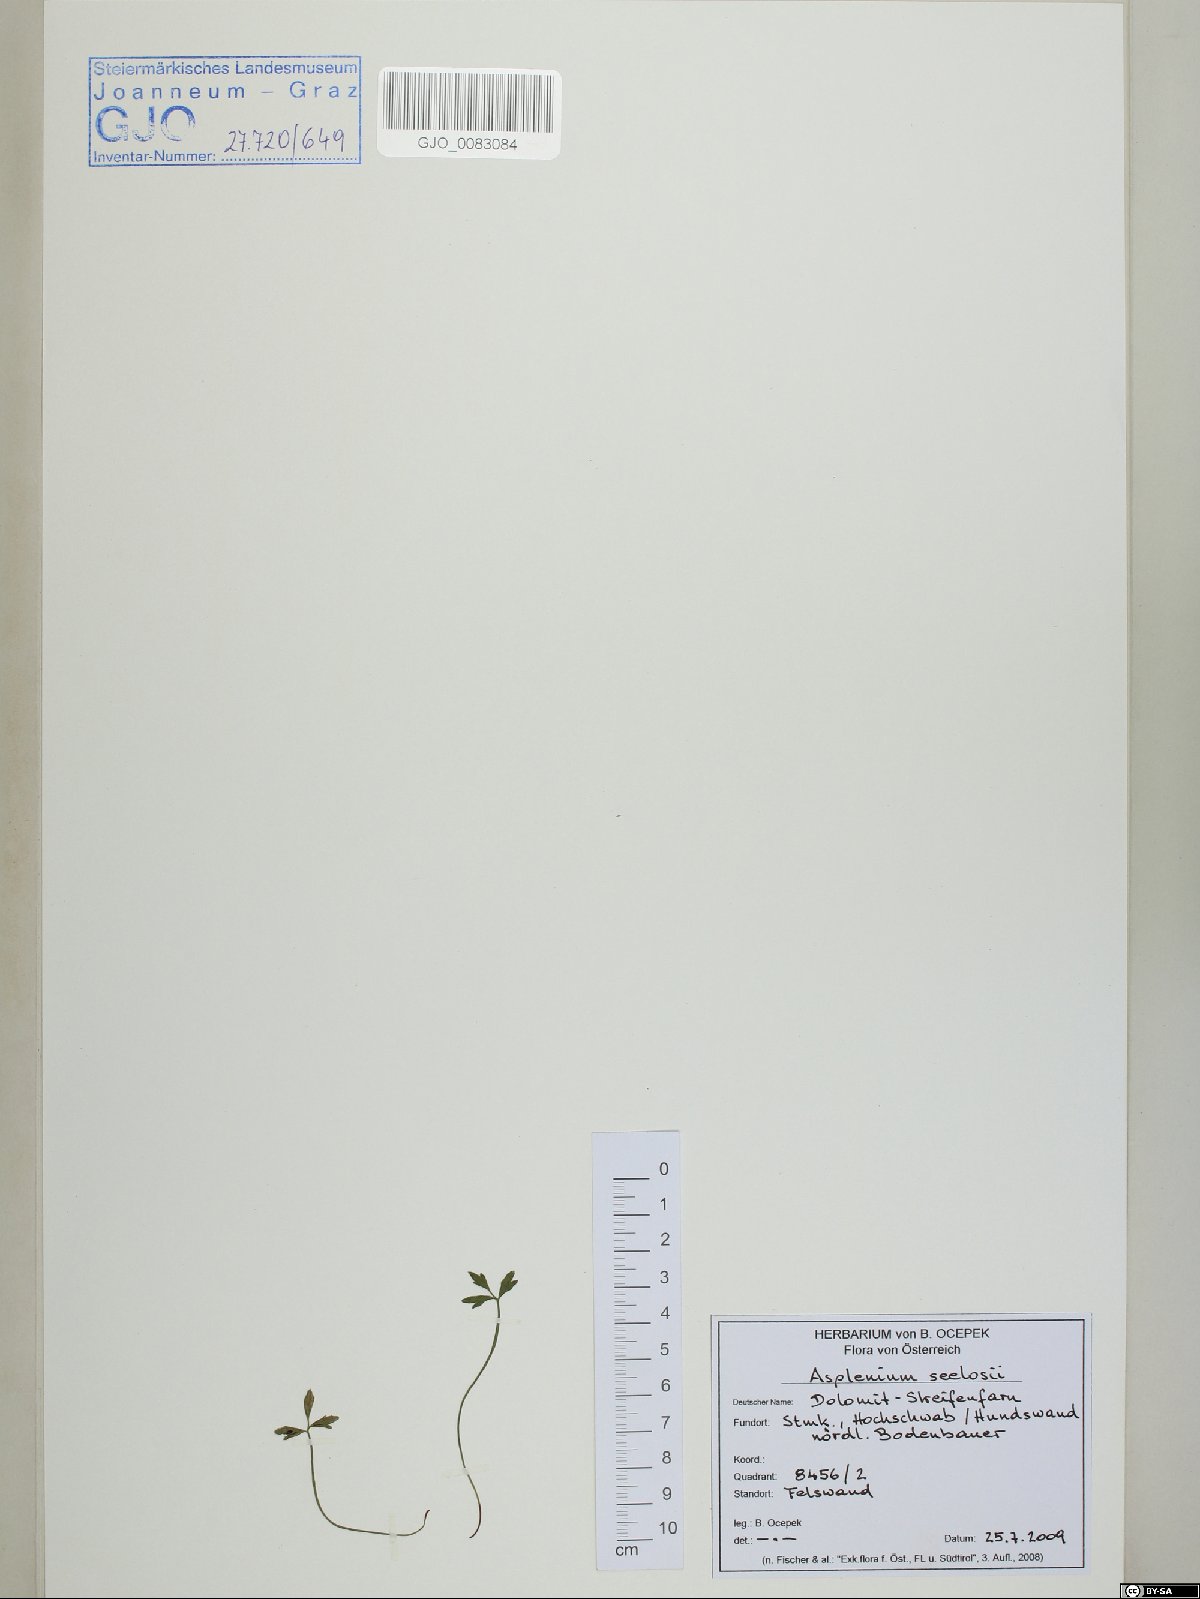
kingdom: Plantae
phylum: Tracheophyta
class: Polypodiopsida
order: Polypodiales
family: Aspleniaceae
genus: Asplenium
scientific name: Asplenium seelosii
